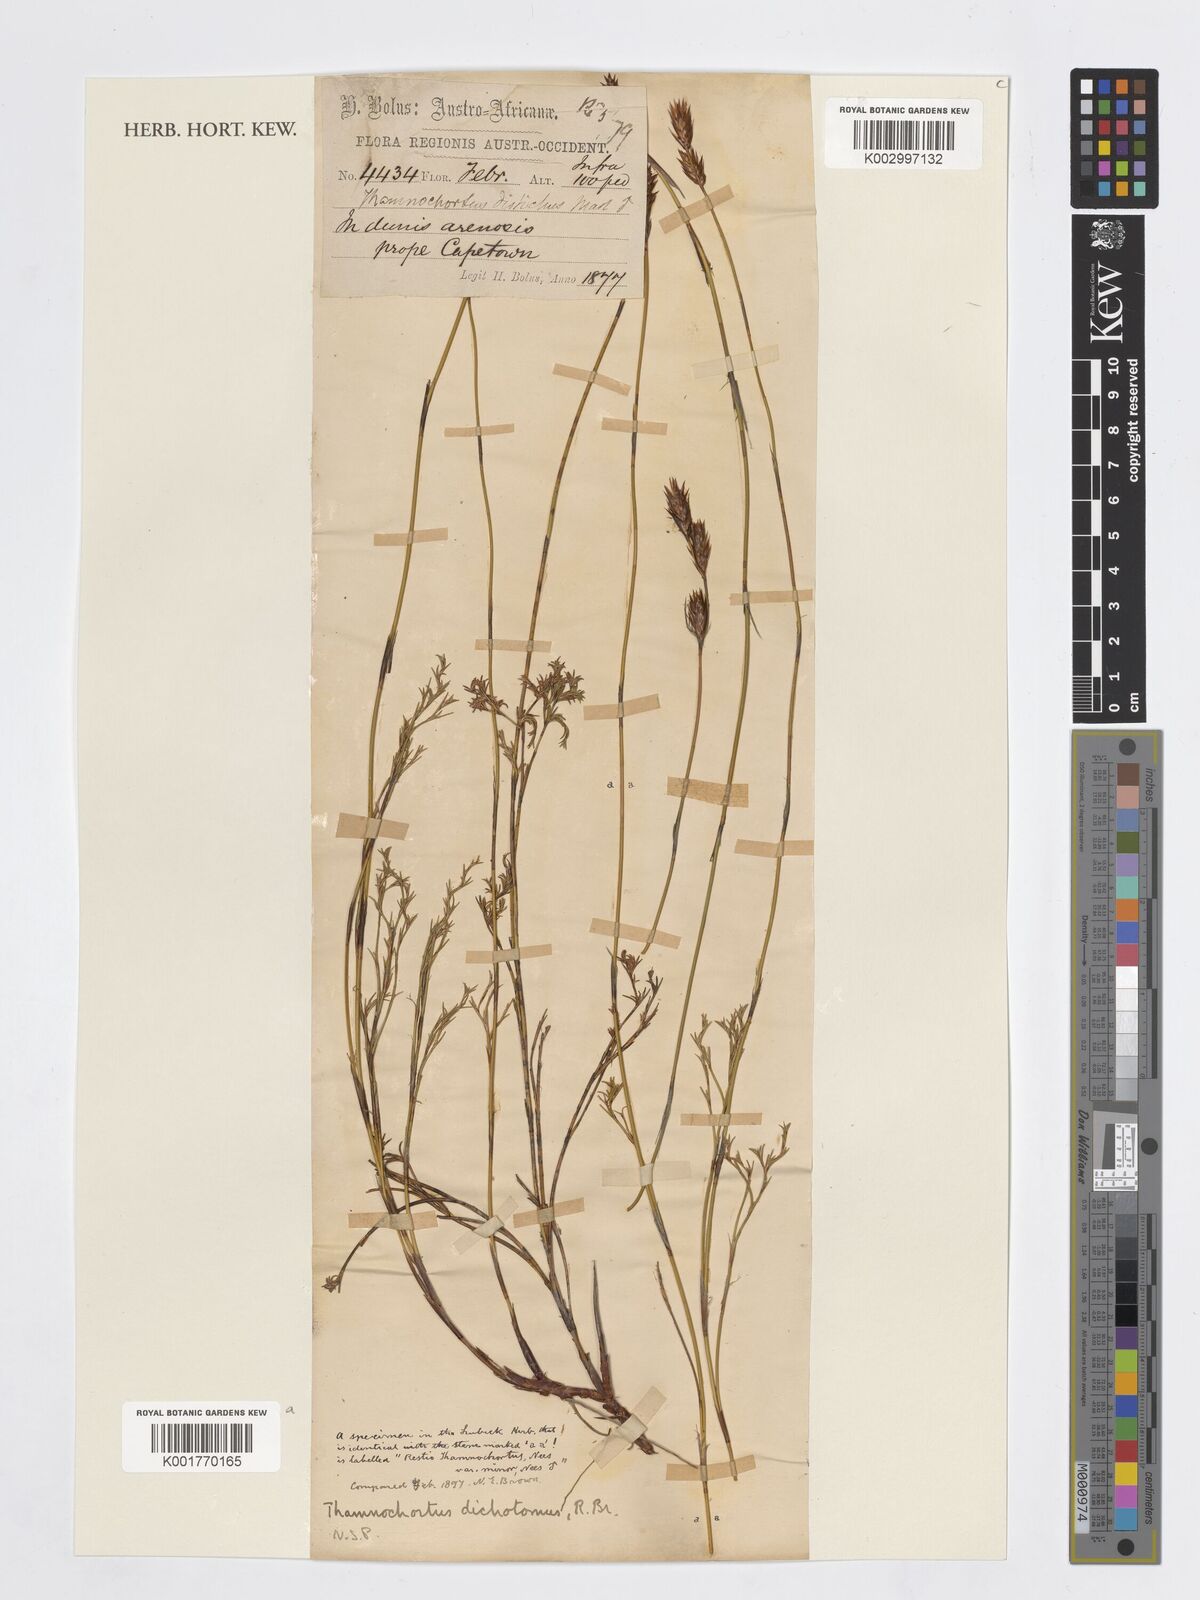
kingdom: Plantae
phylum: Tracheophyta
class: Liliopsida
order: Poales
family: Restionaceae
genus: Restio
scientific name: Restio distichus
